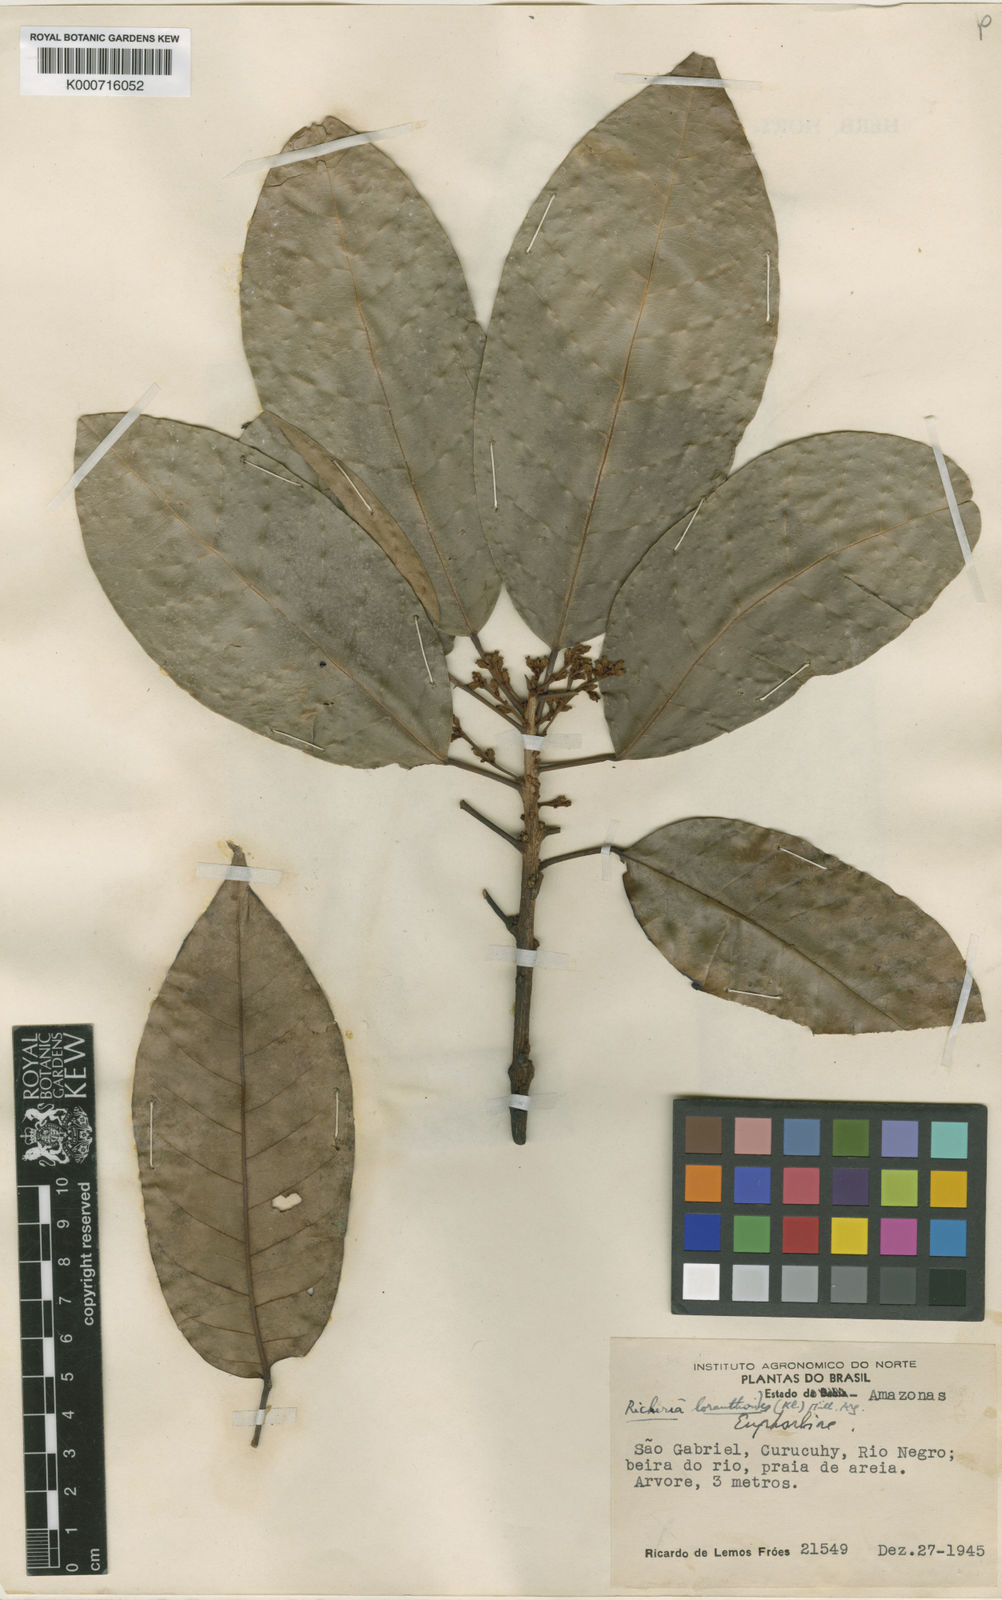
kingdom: Plantae
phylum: Tracheophyta
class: Magnoliopsida
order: Malpighiales
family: Picrodendraceae
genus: Podocalyx
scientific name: Podocalyx loranthoides
